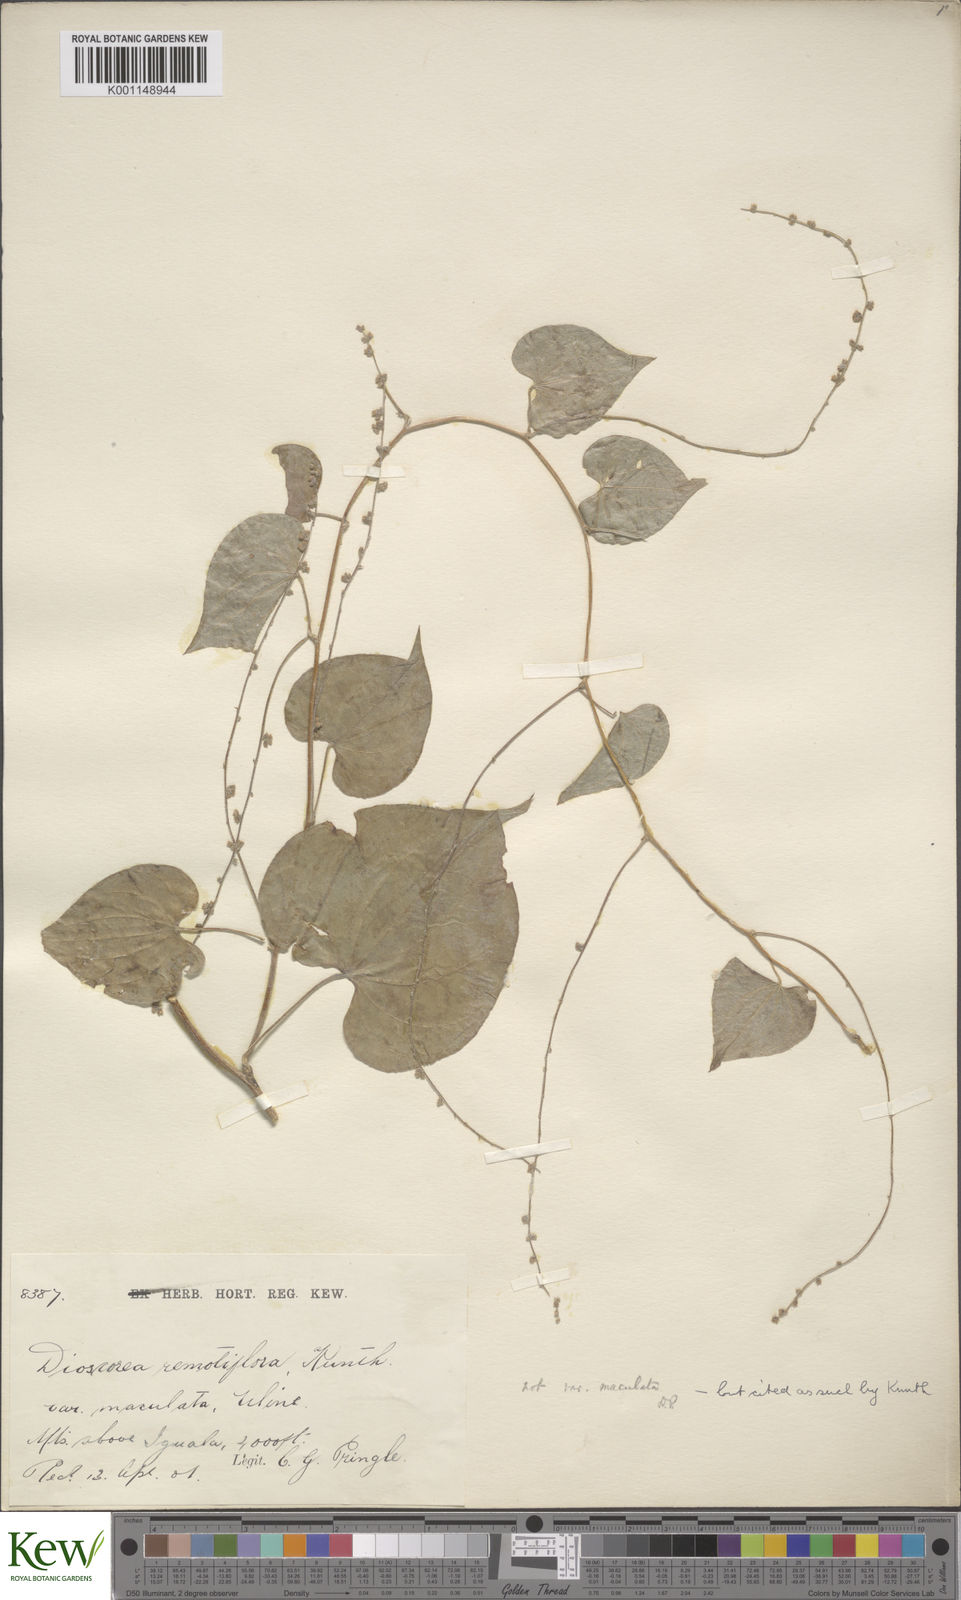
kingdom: Plantae
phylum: Tracheophyta
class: Liliopsida
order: Dioscoreales
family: Dioscoreaceae
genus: Dioscorea
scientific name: Dioscorea remotiflora
